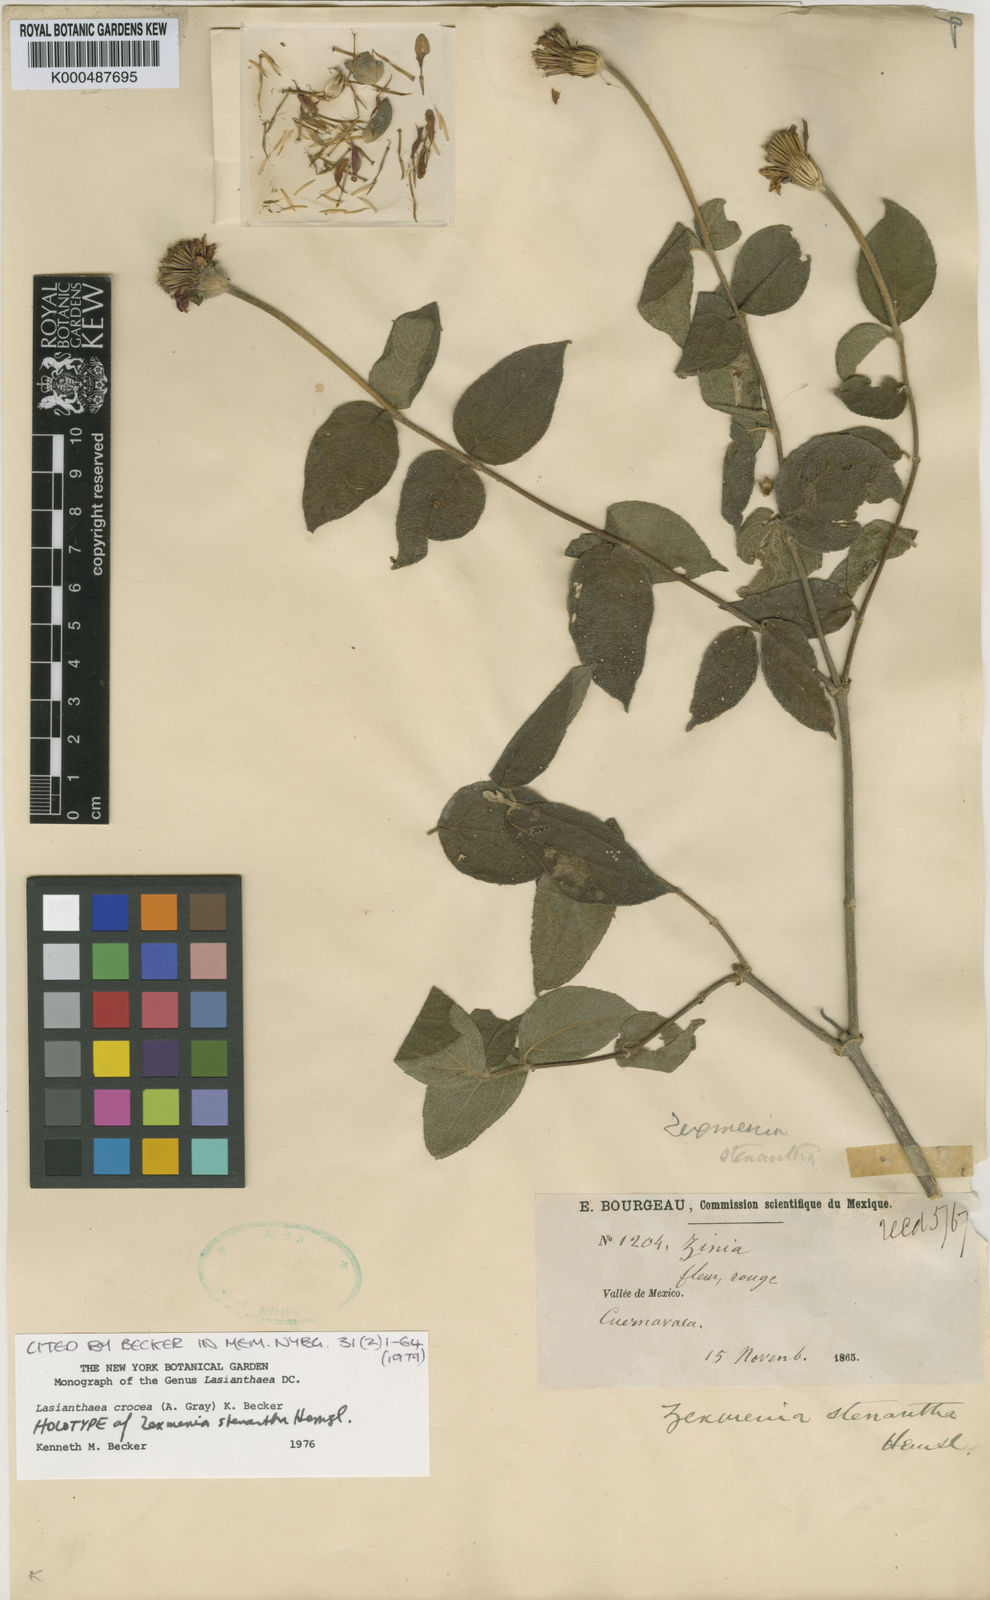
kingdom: Plantae
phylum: Tracheophyta
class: Magnoliopsida
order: Asterales
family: Asteraceae
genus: Lasianthaea
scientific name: Lasianthaea crocea
